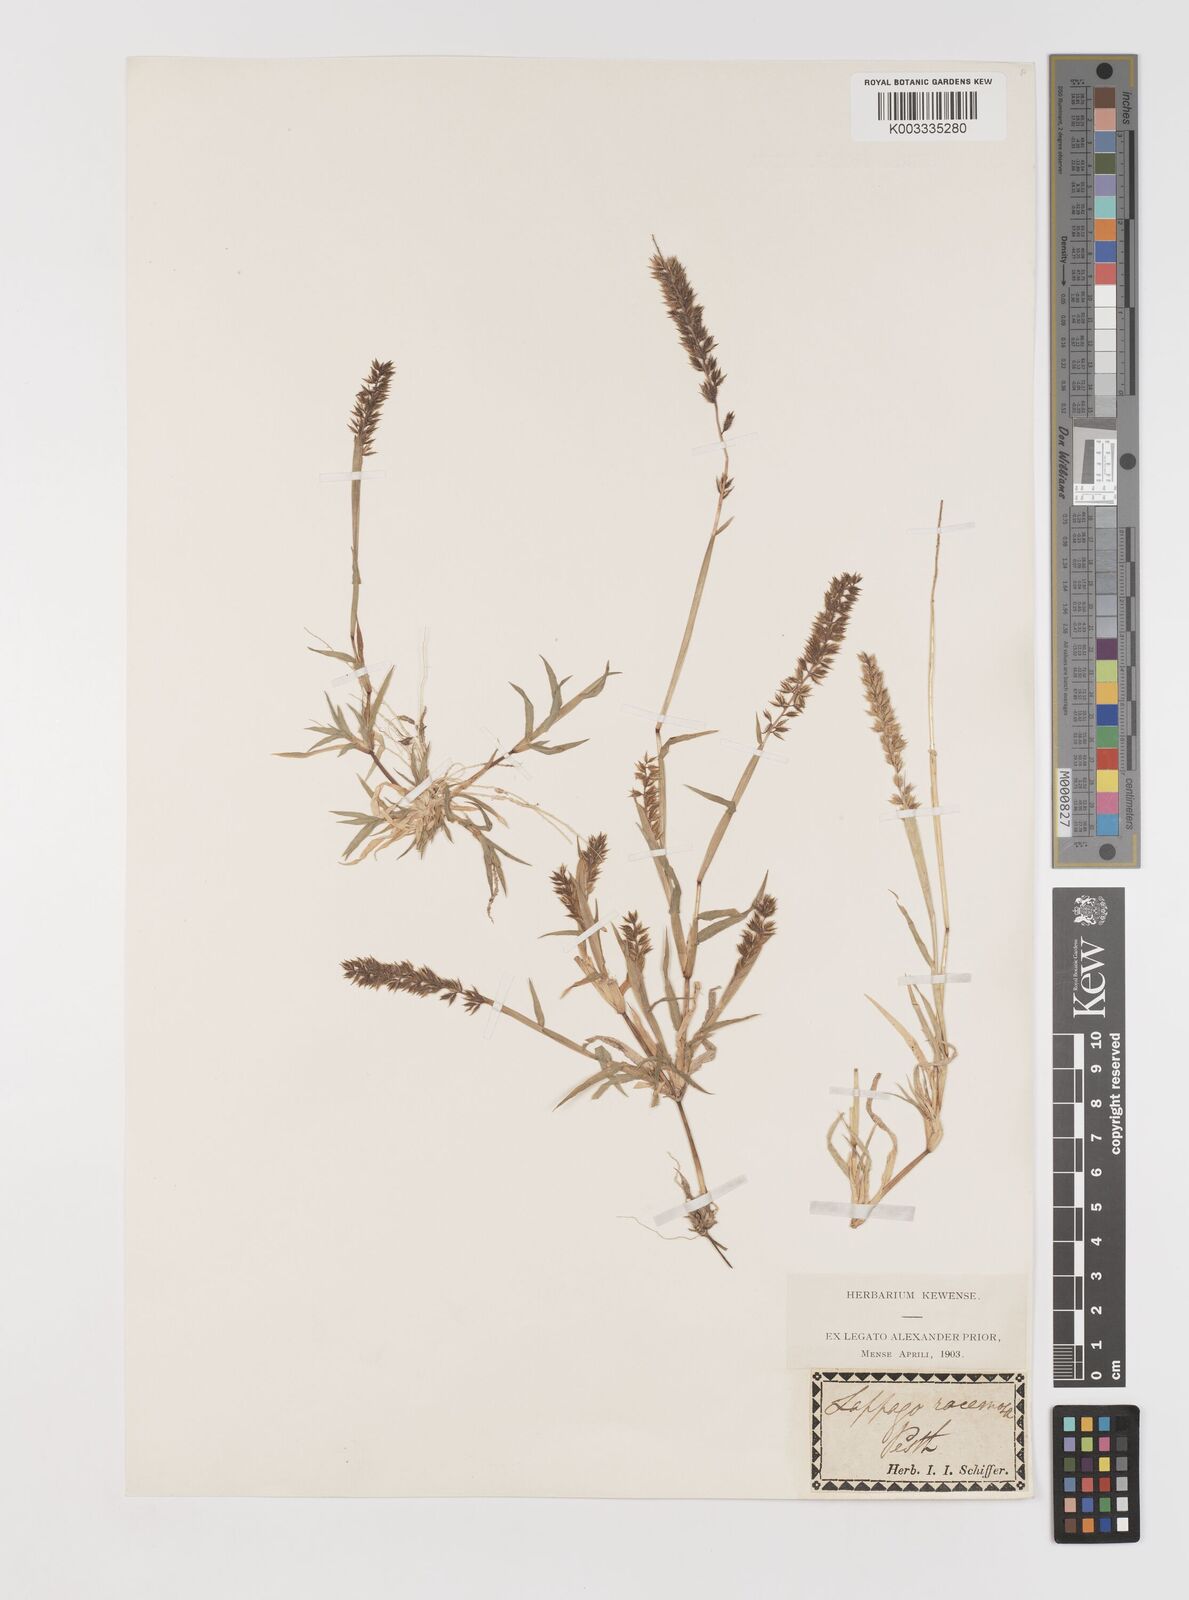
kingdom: Plantae
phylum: Tracheophyta
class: Liliopsida
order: Poales
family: Poaceae
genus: Tragus
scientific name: Tragus racemosus
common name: European bur-grass
